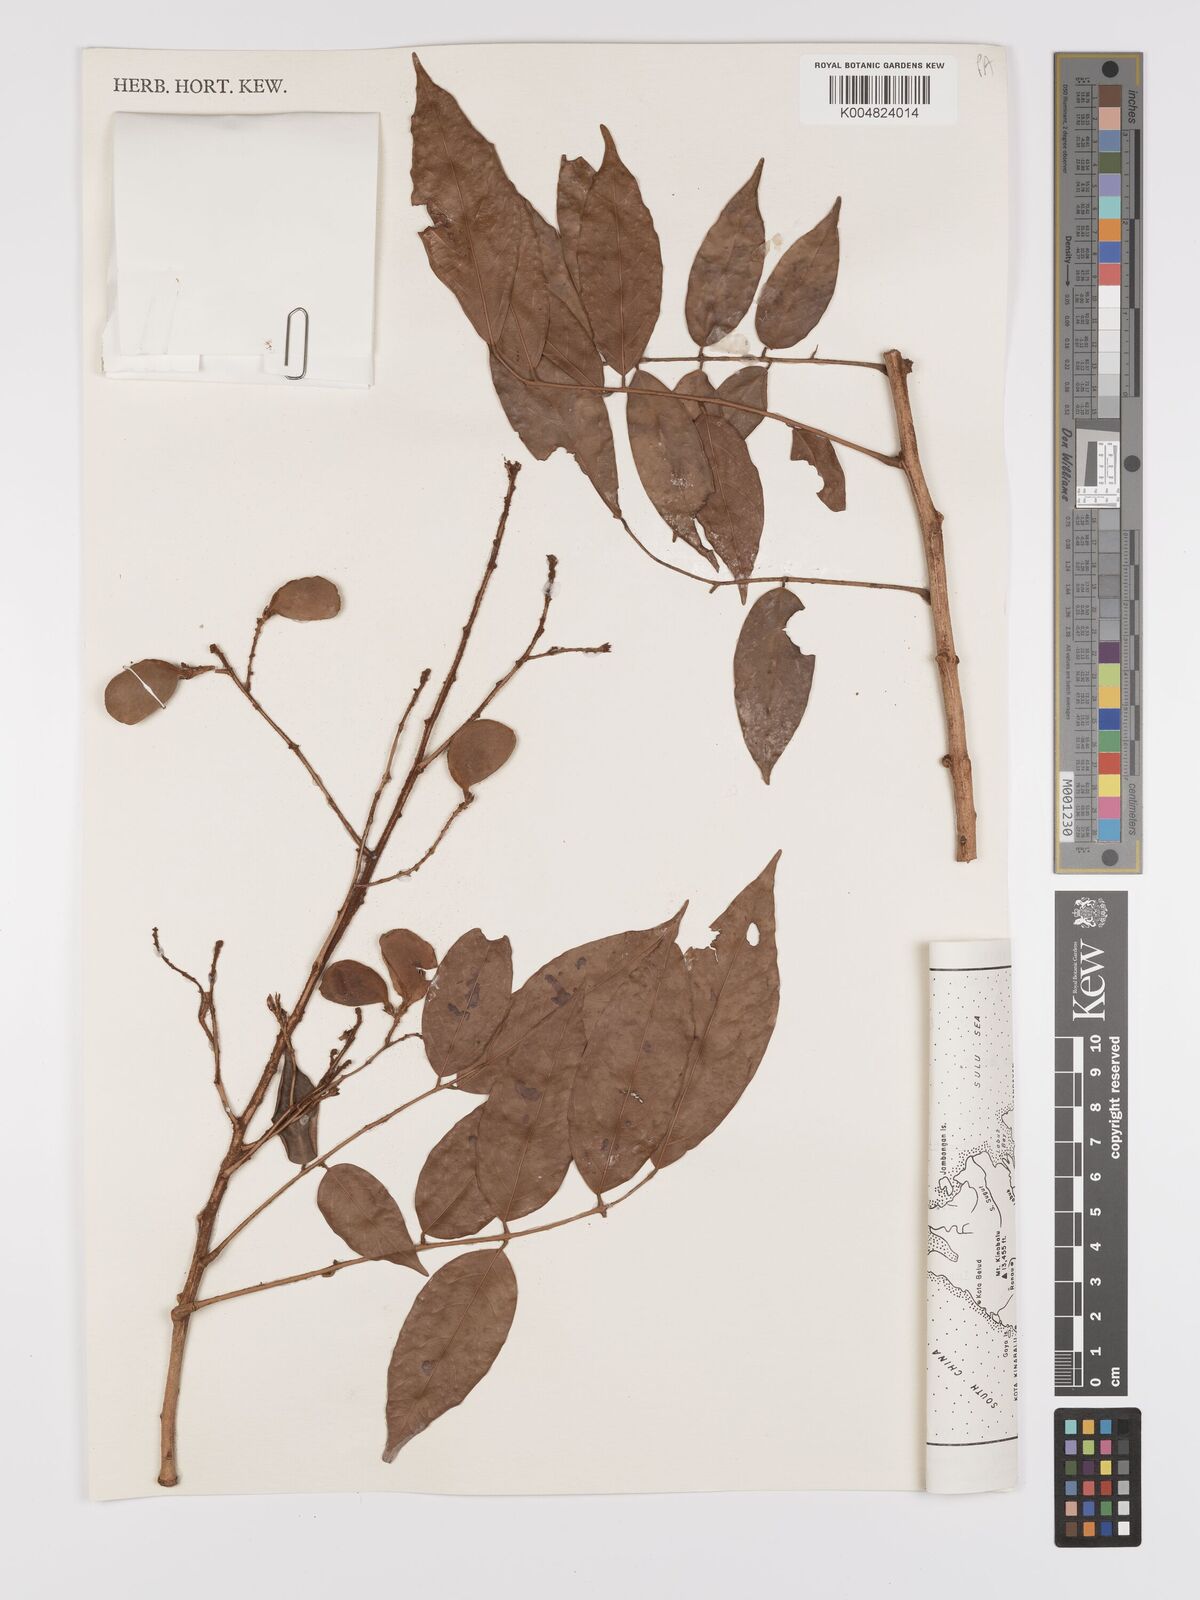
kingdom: Plantae
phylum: Tracheophyta
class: Magnoliopsida
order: Oxalidales
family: Connaraceae
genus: Connarus
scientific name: Connarus odoratus
